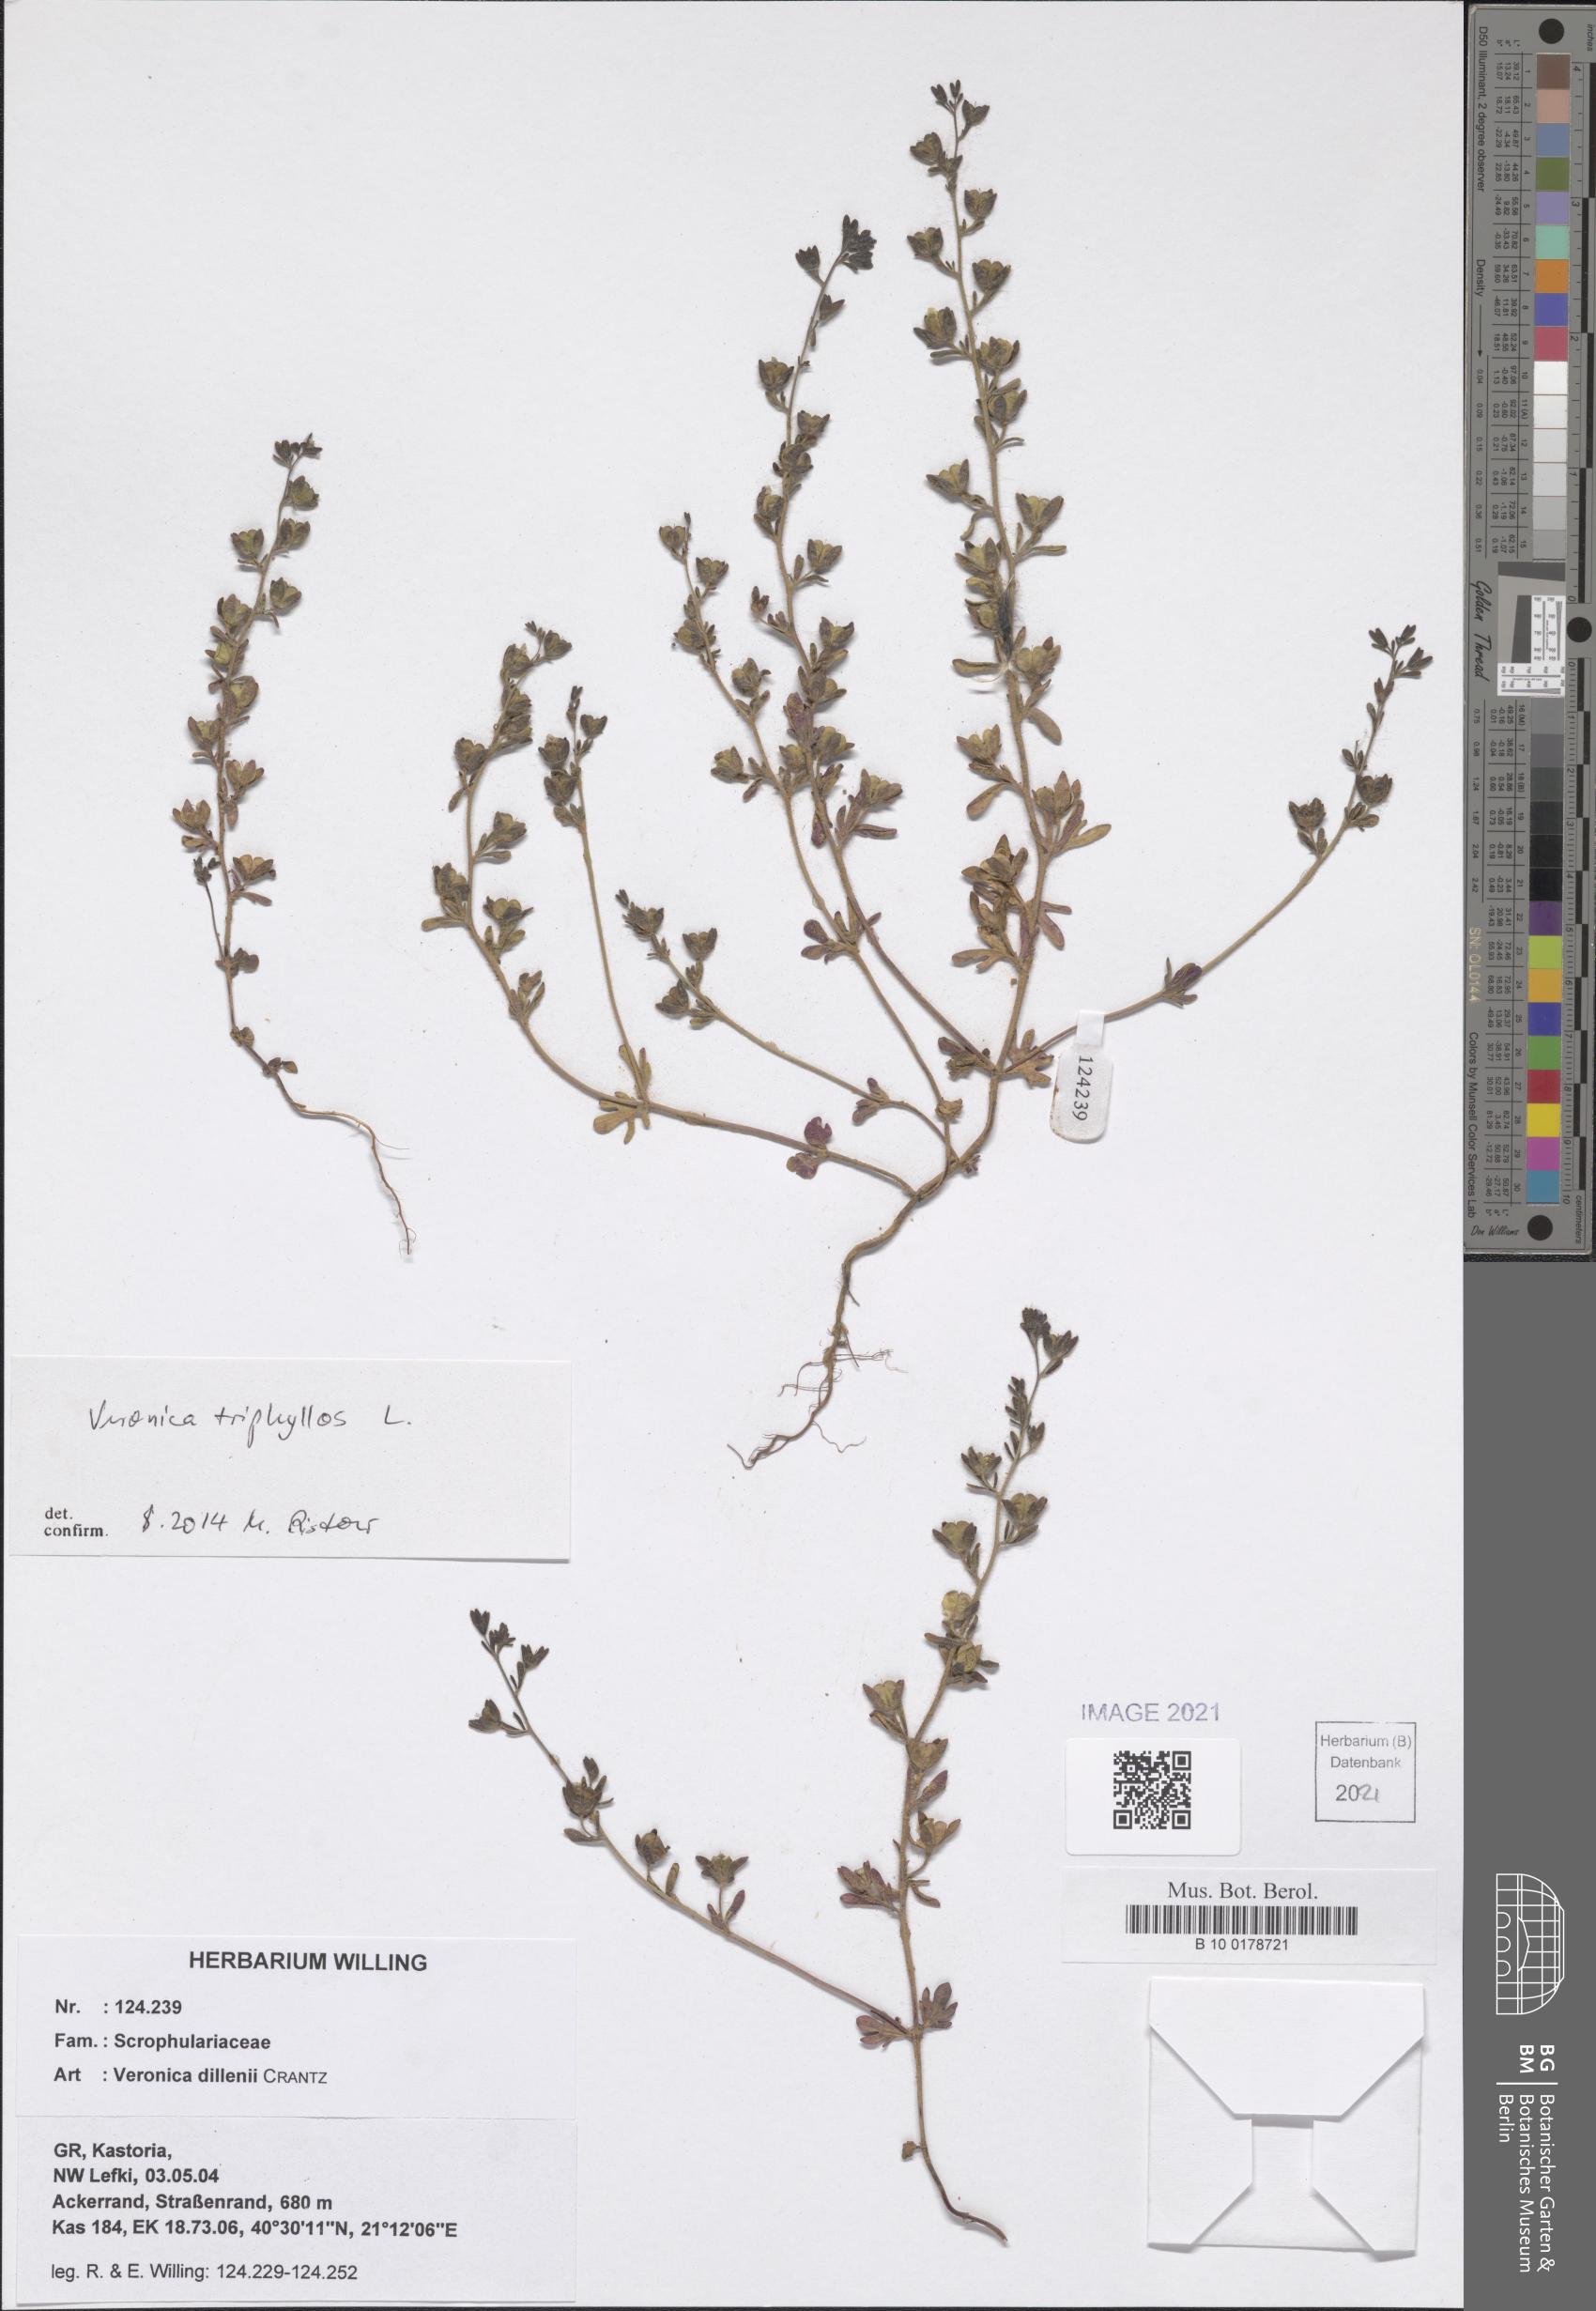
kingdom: Plantae
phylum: Tracheophyta
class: Magnoliopsida
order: Lamiales
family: Plantaginaceae
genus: Veronica
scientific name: Veronica triphyllos
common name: Fingered speedwell
